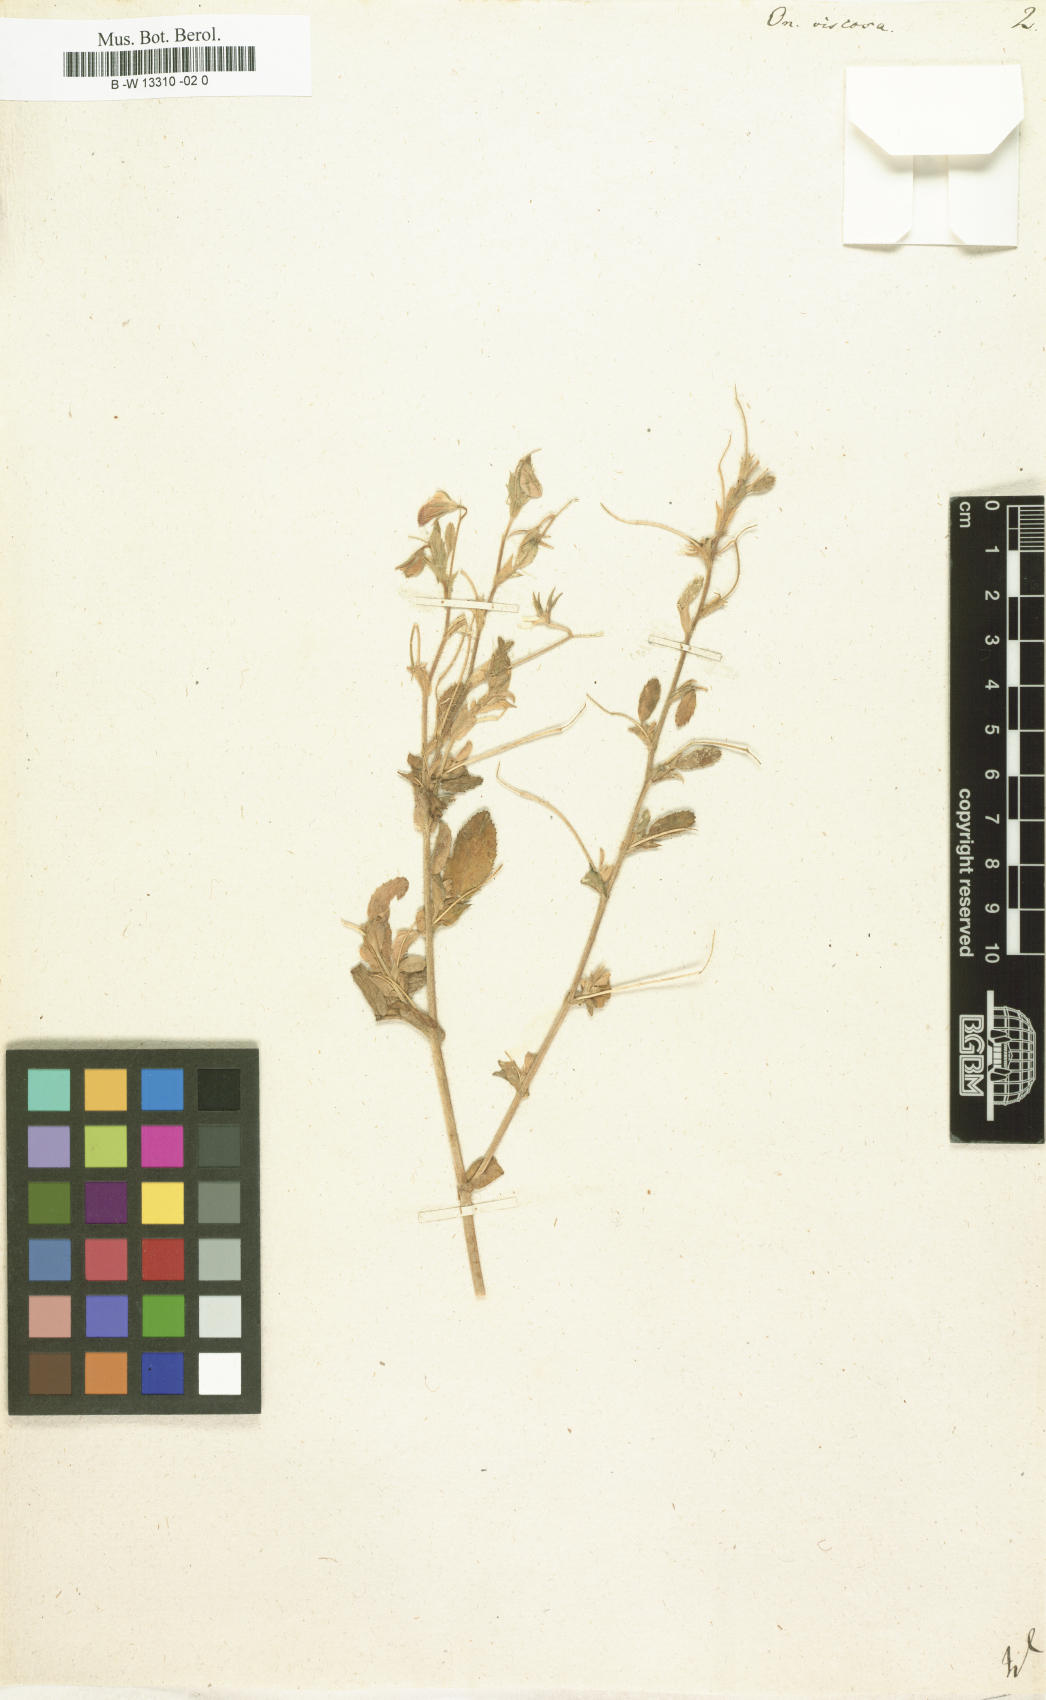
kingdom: Plantae
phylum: Tracheophyta
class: Magnoliopsida
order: Fabales
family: Fabaceae
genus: Ononis
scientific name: Ononis viscosa
